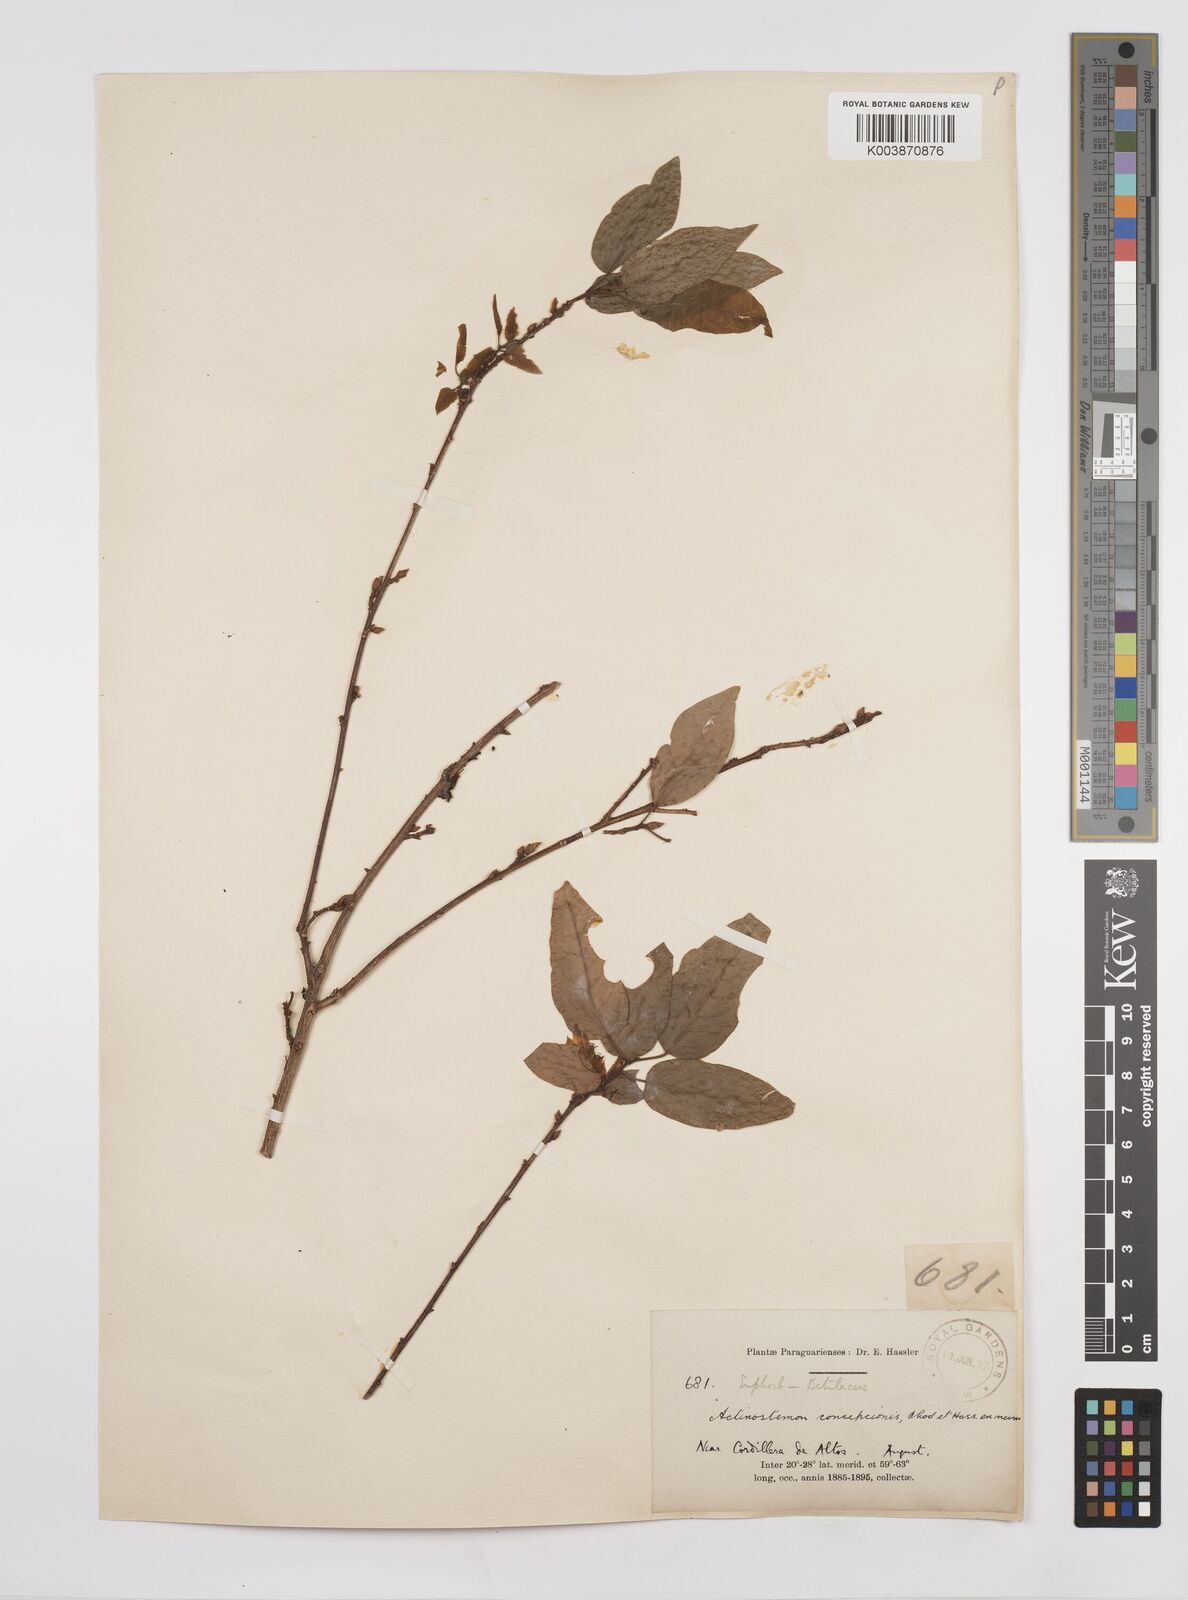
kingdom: Plantae
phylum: Tracheophyta
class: Magnoliopsida
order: Malpighiales
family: Euphorbiaceae
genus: Actinostemon
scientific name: Actinostemon concepcionis
